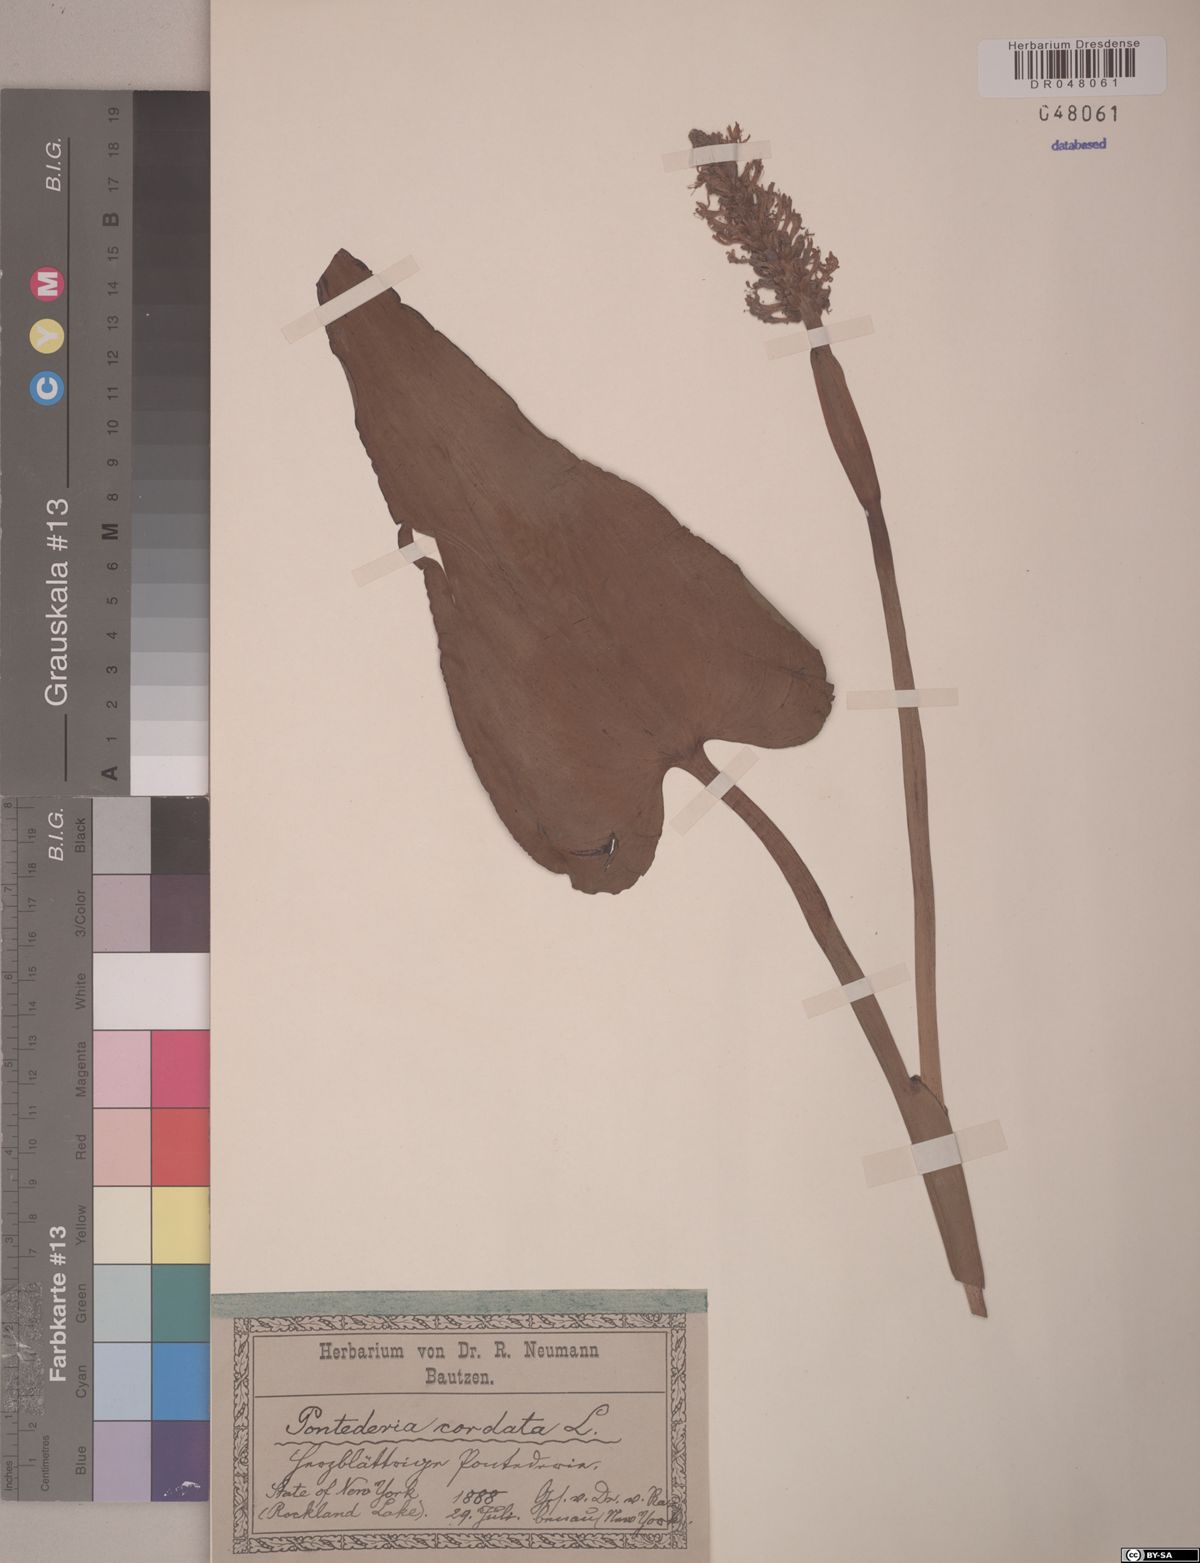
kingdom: Plantae
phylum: Tracheophyta
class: Liliopsida
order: Commelinales
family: Pontederiaceae
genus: Pontederia
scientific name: Pontederia cordata
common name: Pickerelweed
